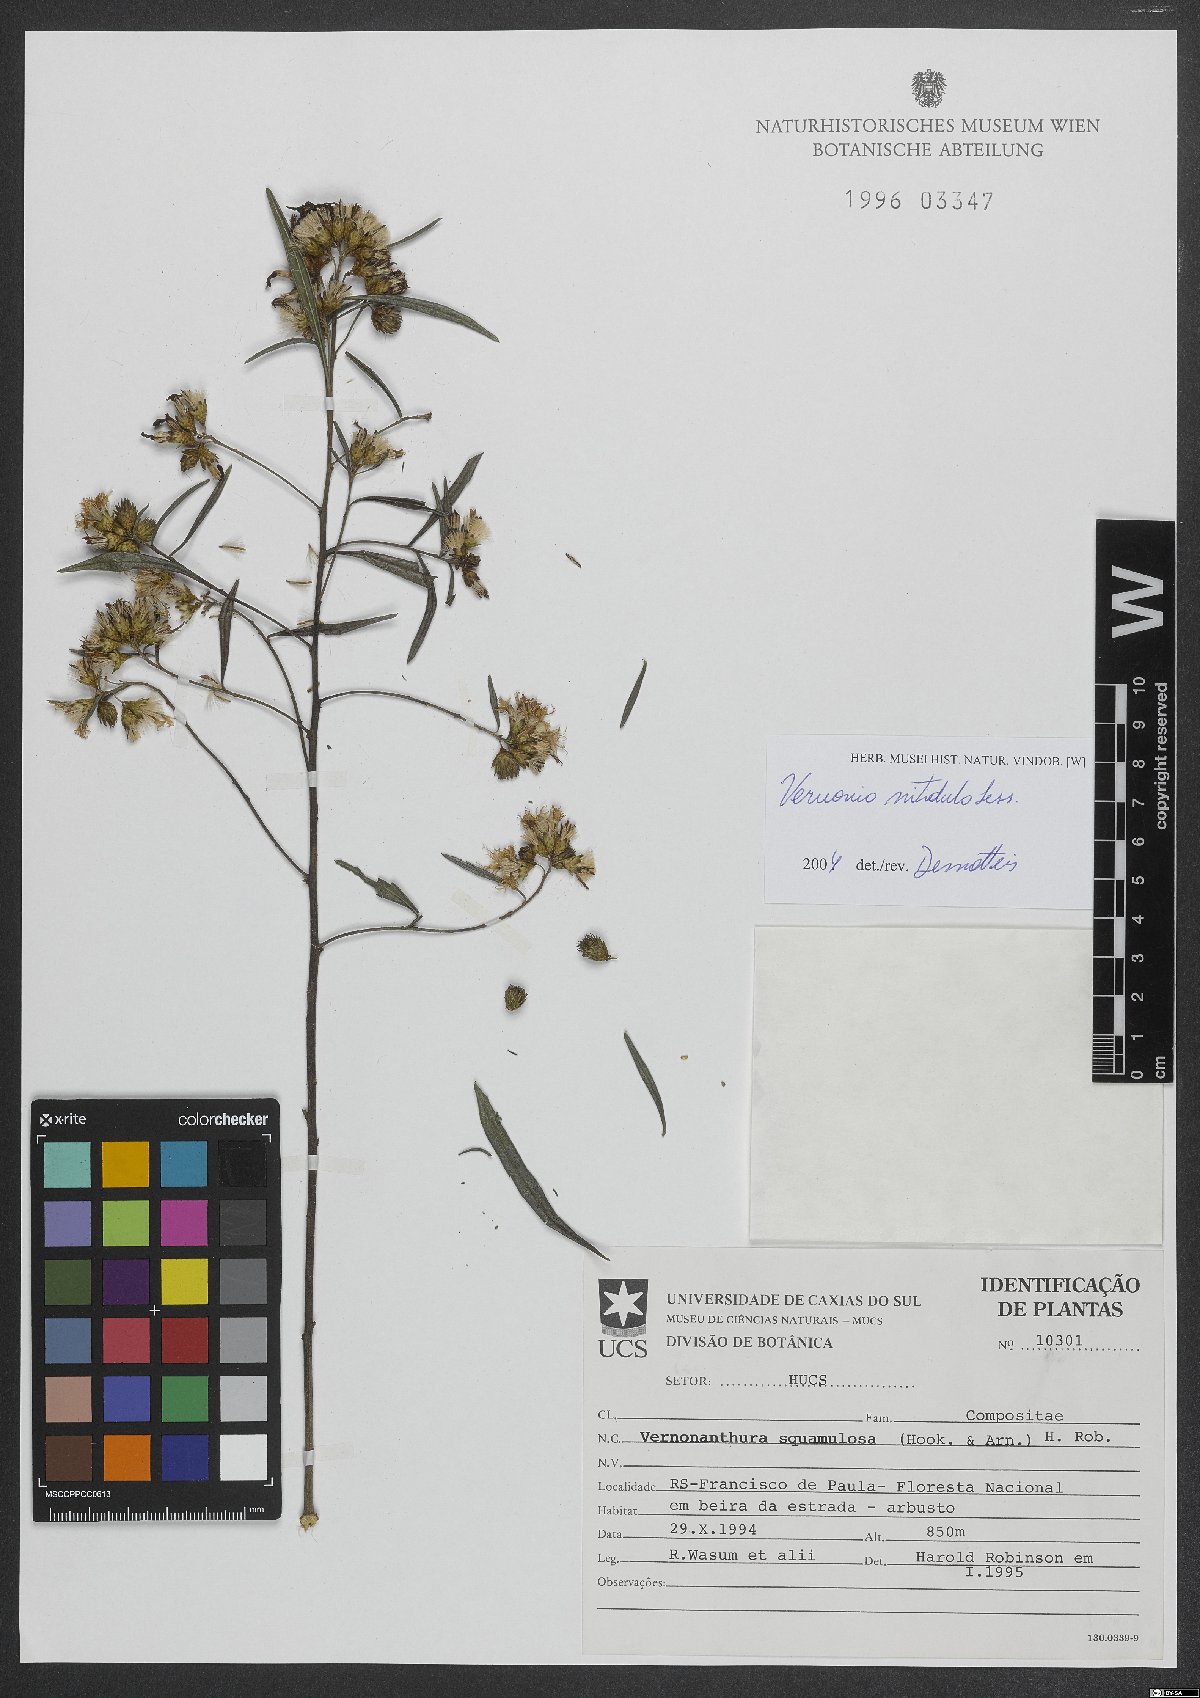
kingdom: Plantae
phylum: Tracheophyta
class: Magnoliopsida
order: Asterales
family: Asteraceae
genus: Vernonanthura
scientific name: Vernonanthura montevidensis
